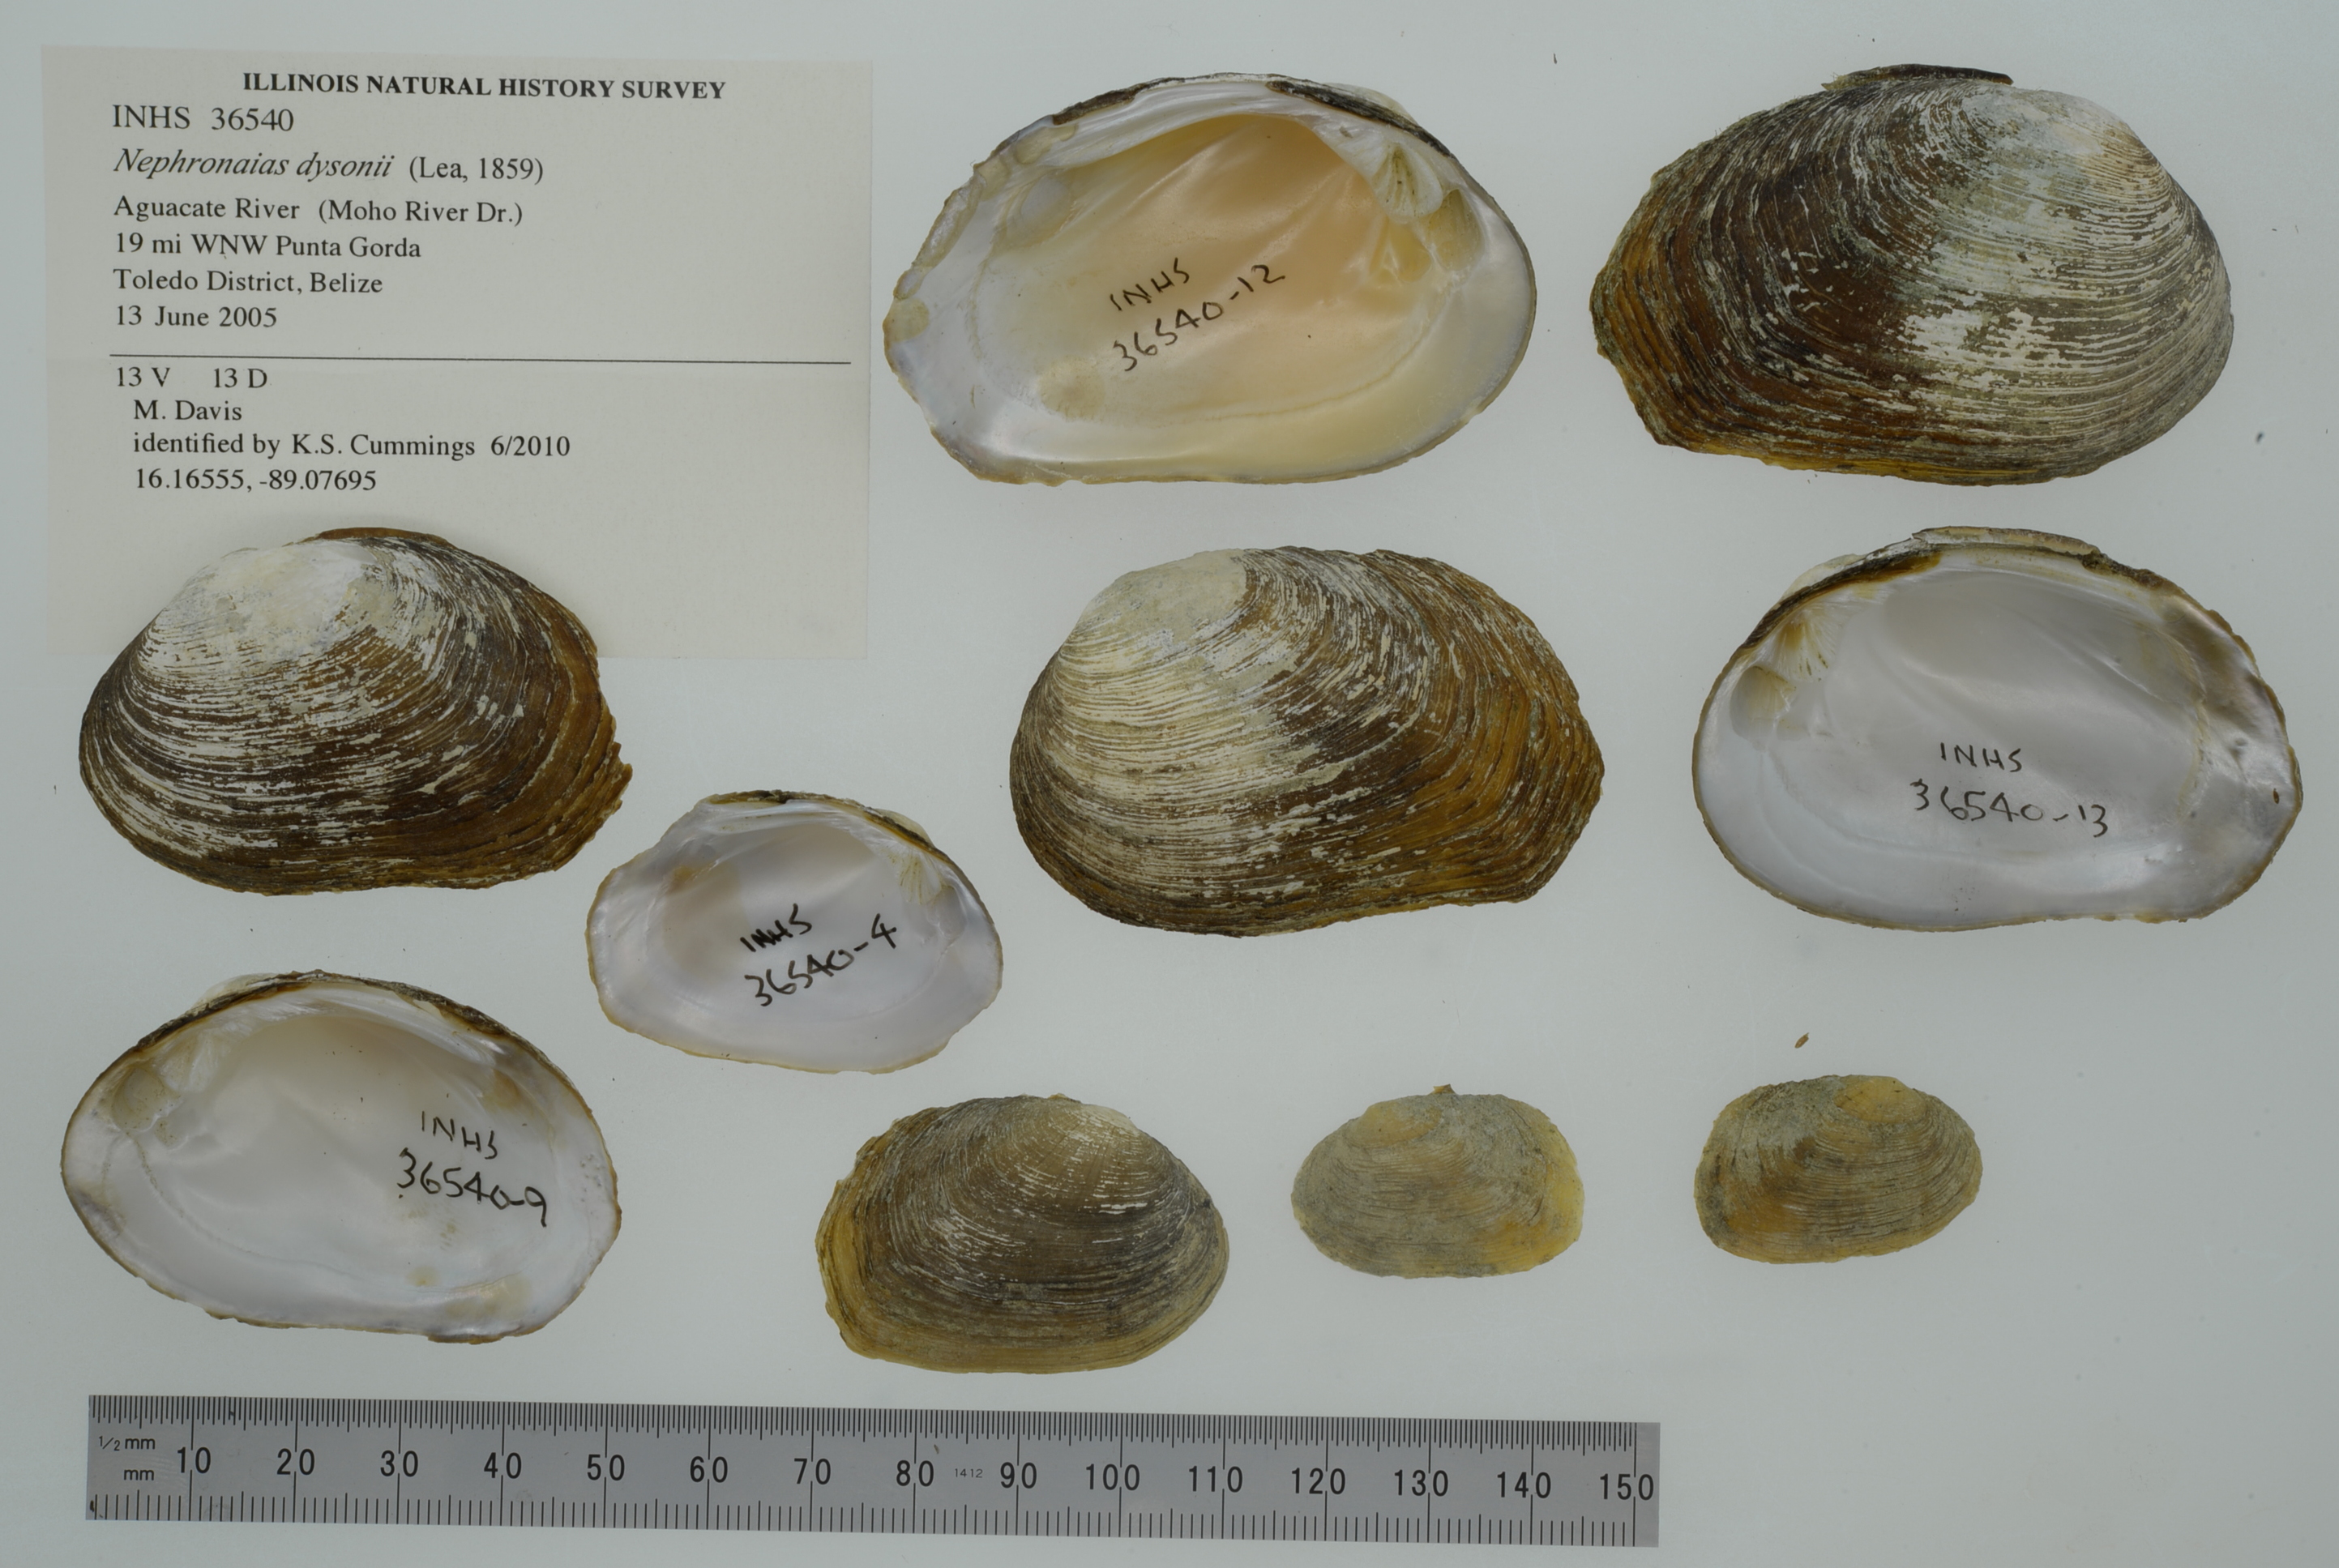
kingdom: Animalia
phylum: Mollusca
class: Bivalvia
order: Unionida
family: Unionidae
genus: Nephronaias
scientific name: Nephronaias dysonii
